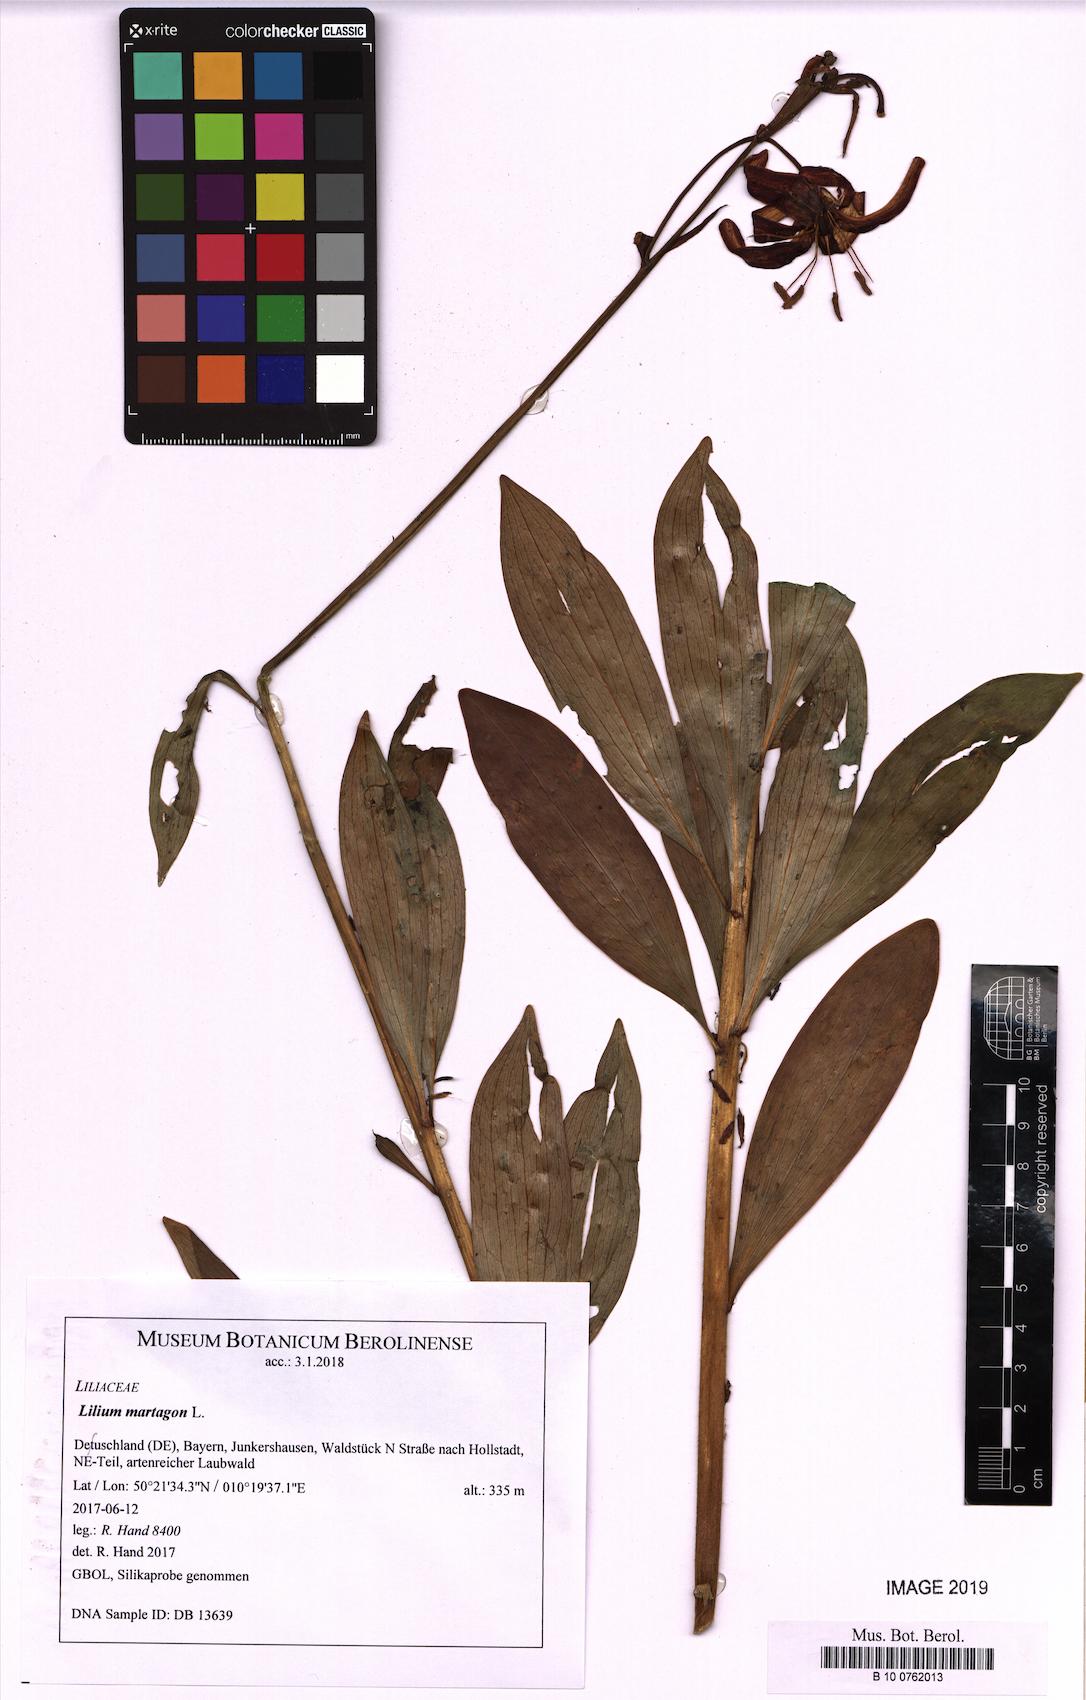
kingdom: Plantae
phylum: Tracheophyta
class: Liliopsida
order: Liliales
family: Liliaceae
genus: Lilium
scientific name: Lilium martagon
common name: Martagon lily
